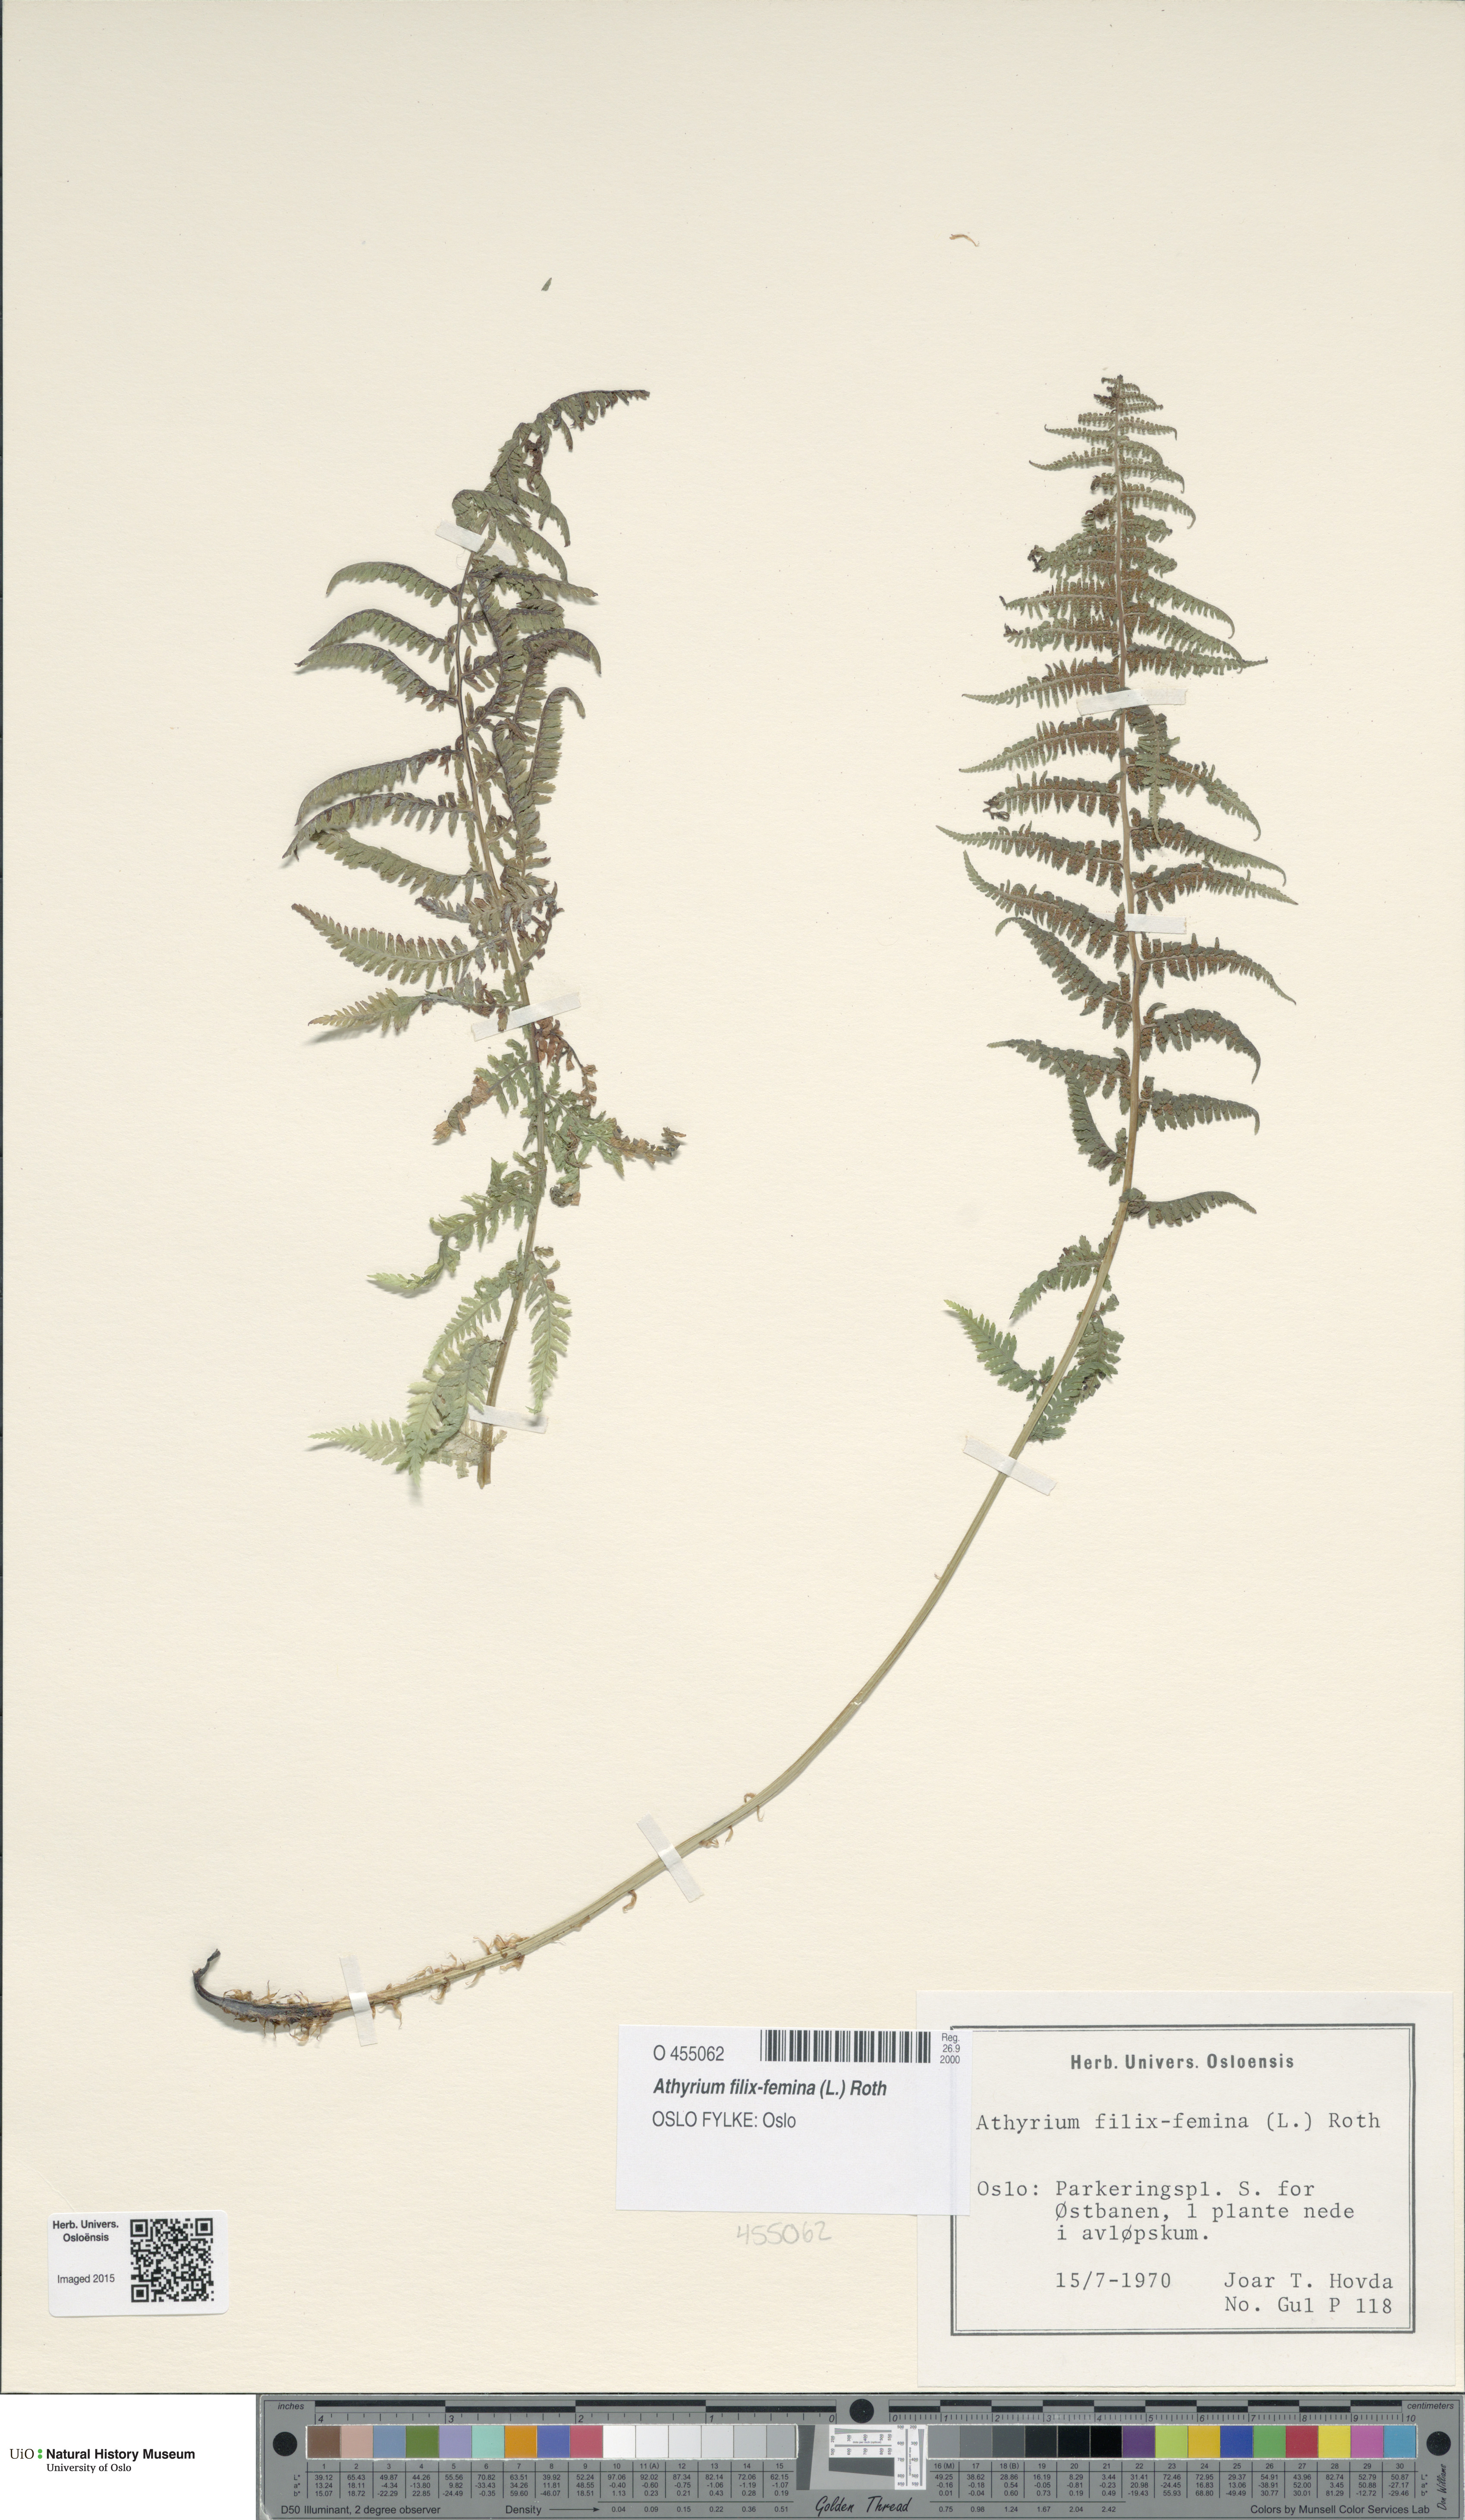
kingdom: Plantae
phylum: Tracheophyta
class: Polypodiopsida
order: Polypodiales
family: Athyriaceae
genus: Athyrium
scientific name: Athyrium filix-femina
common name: Lady fern
